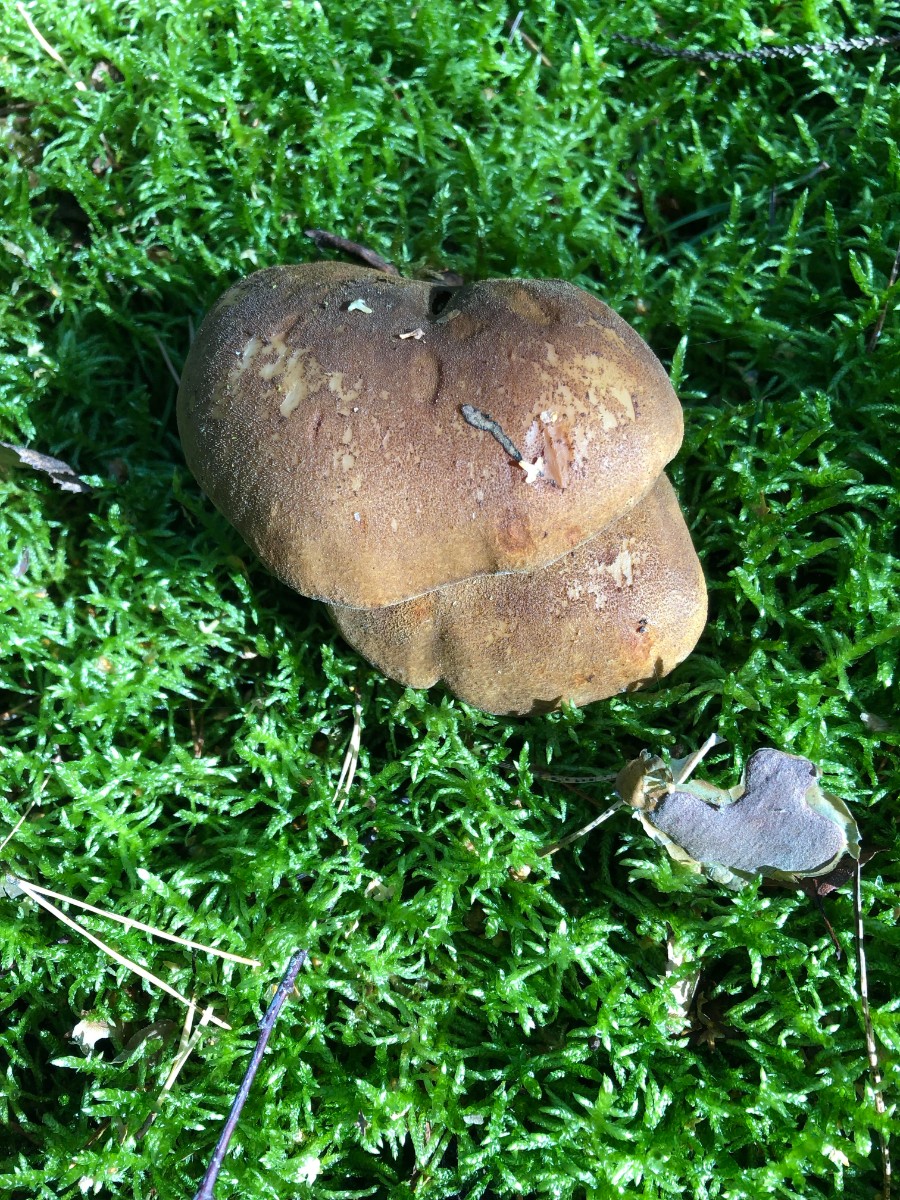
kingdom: Fungi
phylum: Basidiomycota
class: Agaricomycetes
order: Boletales
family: Tapinellaceae
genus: Tapinella
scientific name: Tapinella atrotomentosa
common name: sortfiltet viftesvamp
